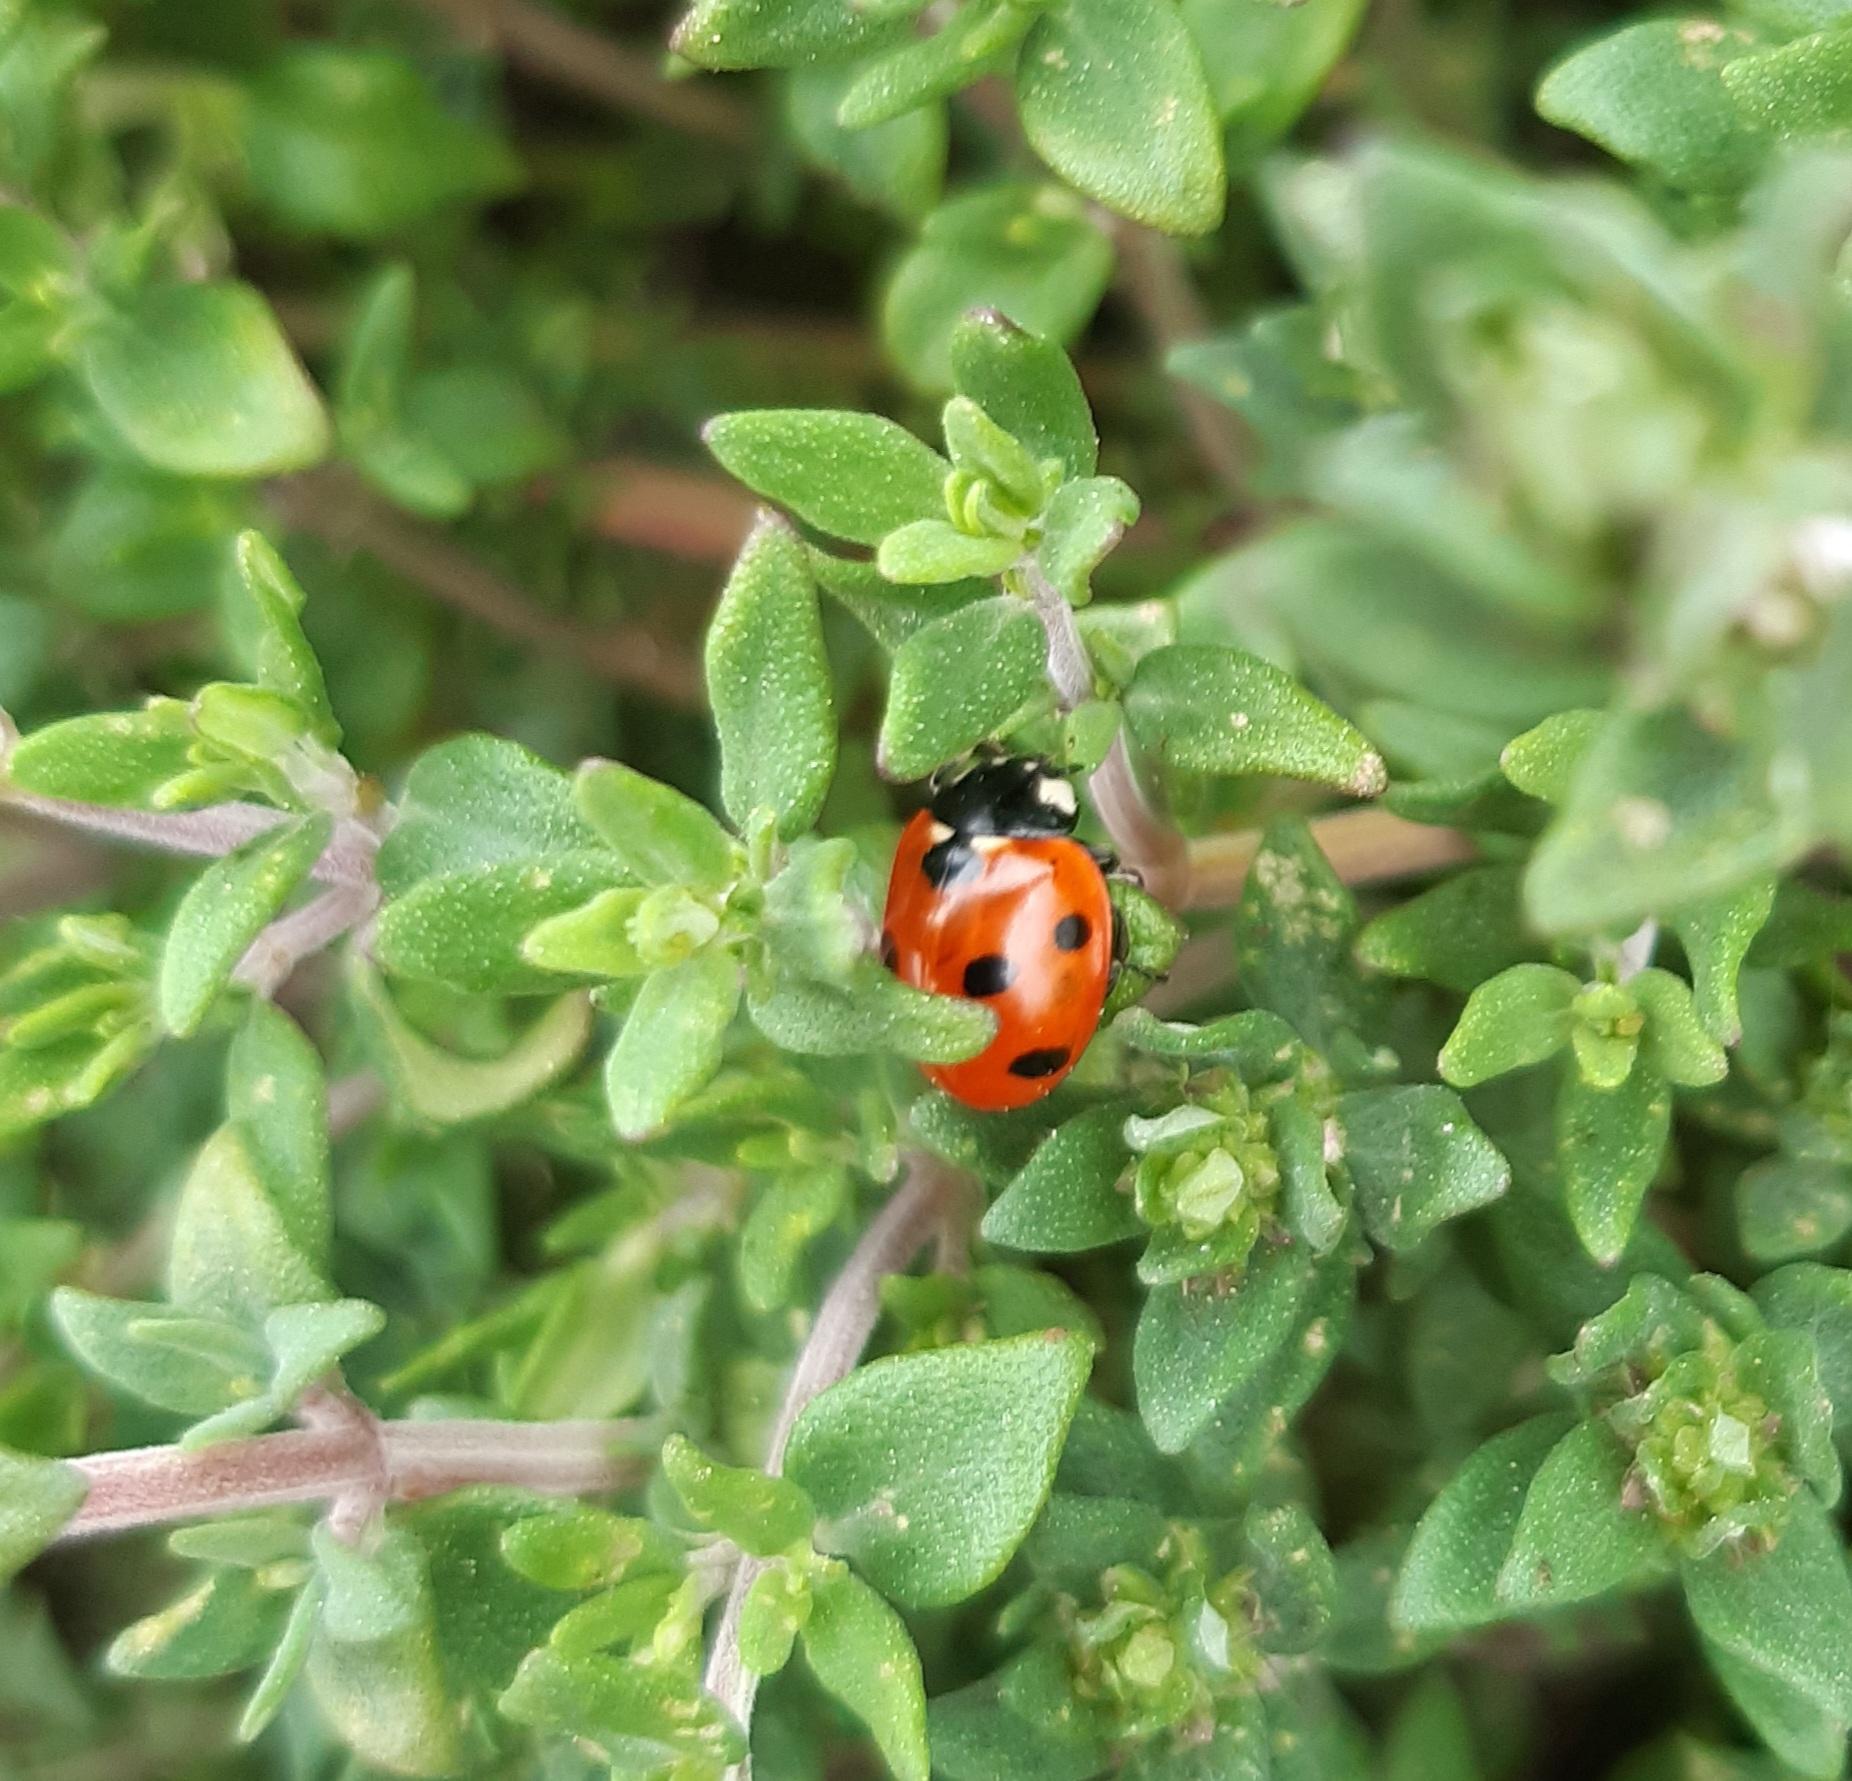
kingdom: Animalia
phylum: Arthropoda
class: Insecta
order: Coleoptera
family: Coccinellidae
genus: Coccinella
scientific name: Coccinella septempunctata
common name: Syvplettet mariehøne
